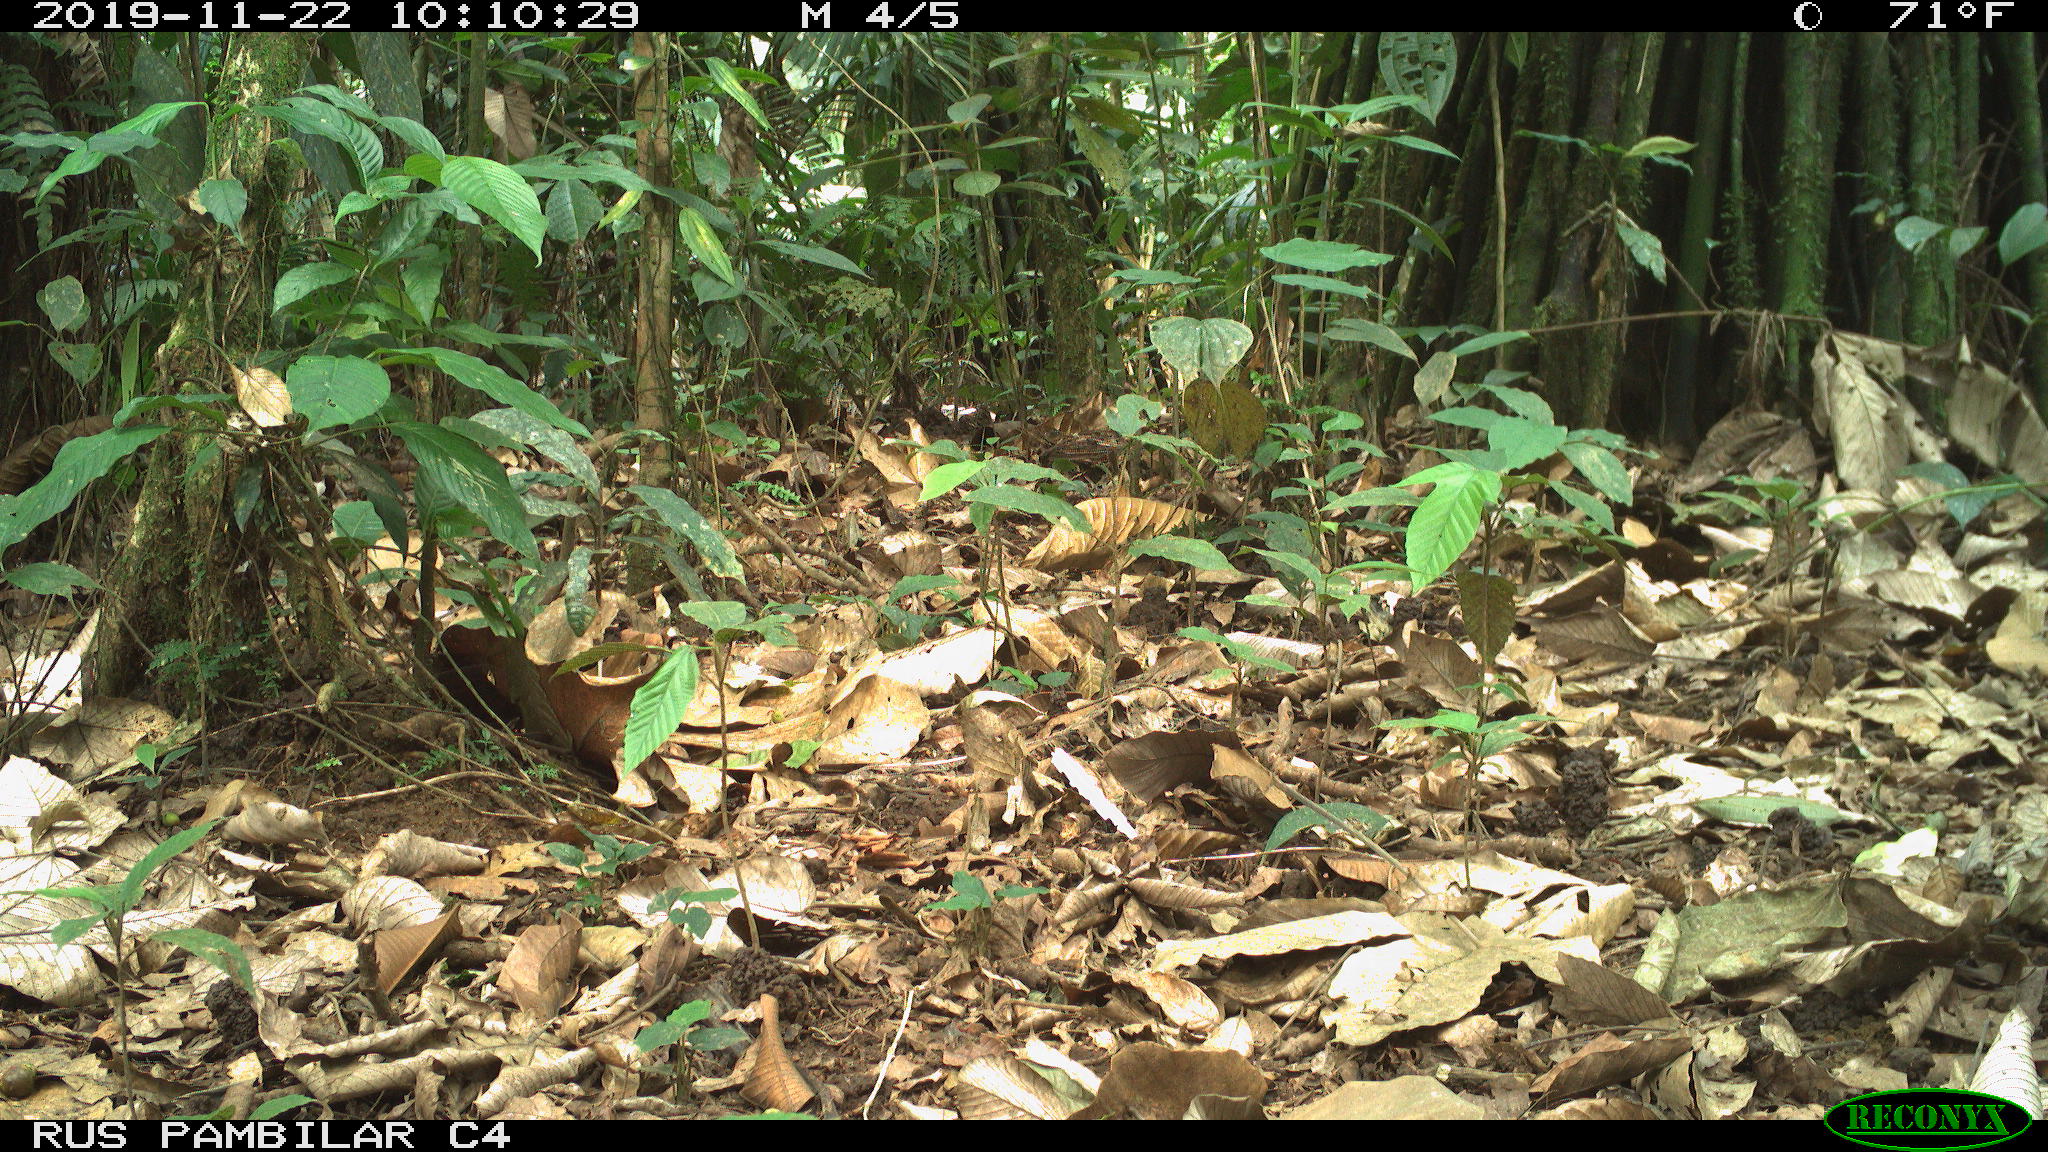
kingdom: Animalia
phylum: Chordata
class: Mammalia
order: Rodentia
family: Dasyproctidae
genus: Dasyprocta
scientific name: Dasyprocta punctata
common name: Central american agouti
